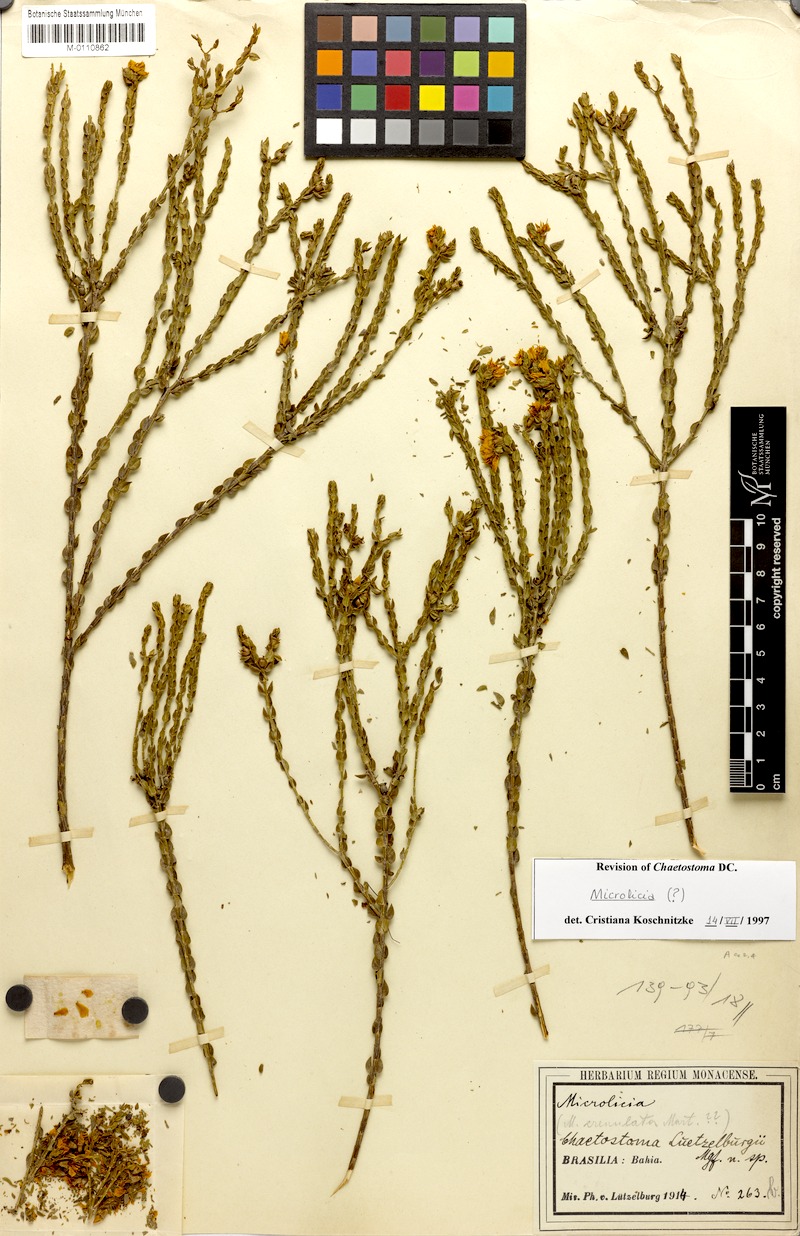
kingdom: Plantae
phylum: Tracheophyta
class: Magnoliopsida
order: Myrtales
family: Melastomataceae
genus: Microlicia
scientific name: Microlicia semiriana
